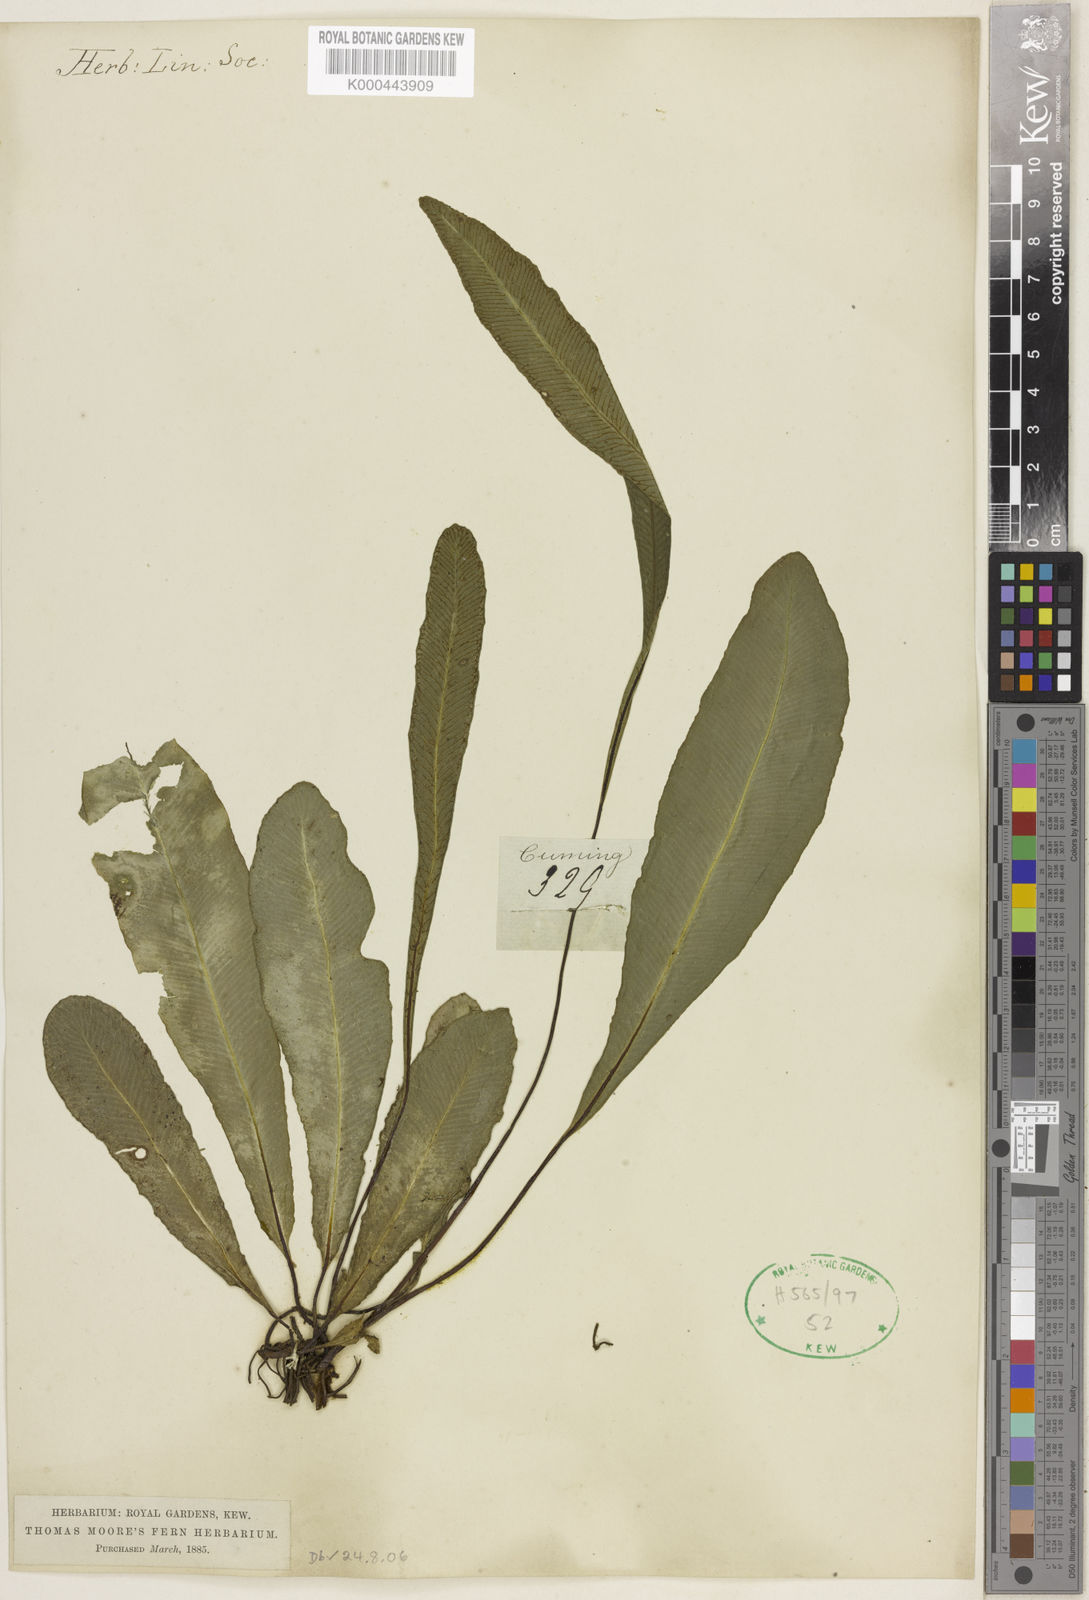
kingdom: Plantae
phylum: Tracheophyta
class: Polypodiopsida
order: Polypodiales
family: Pteridaceae
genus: Syngramma
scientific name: Syngramma vittiformis
